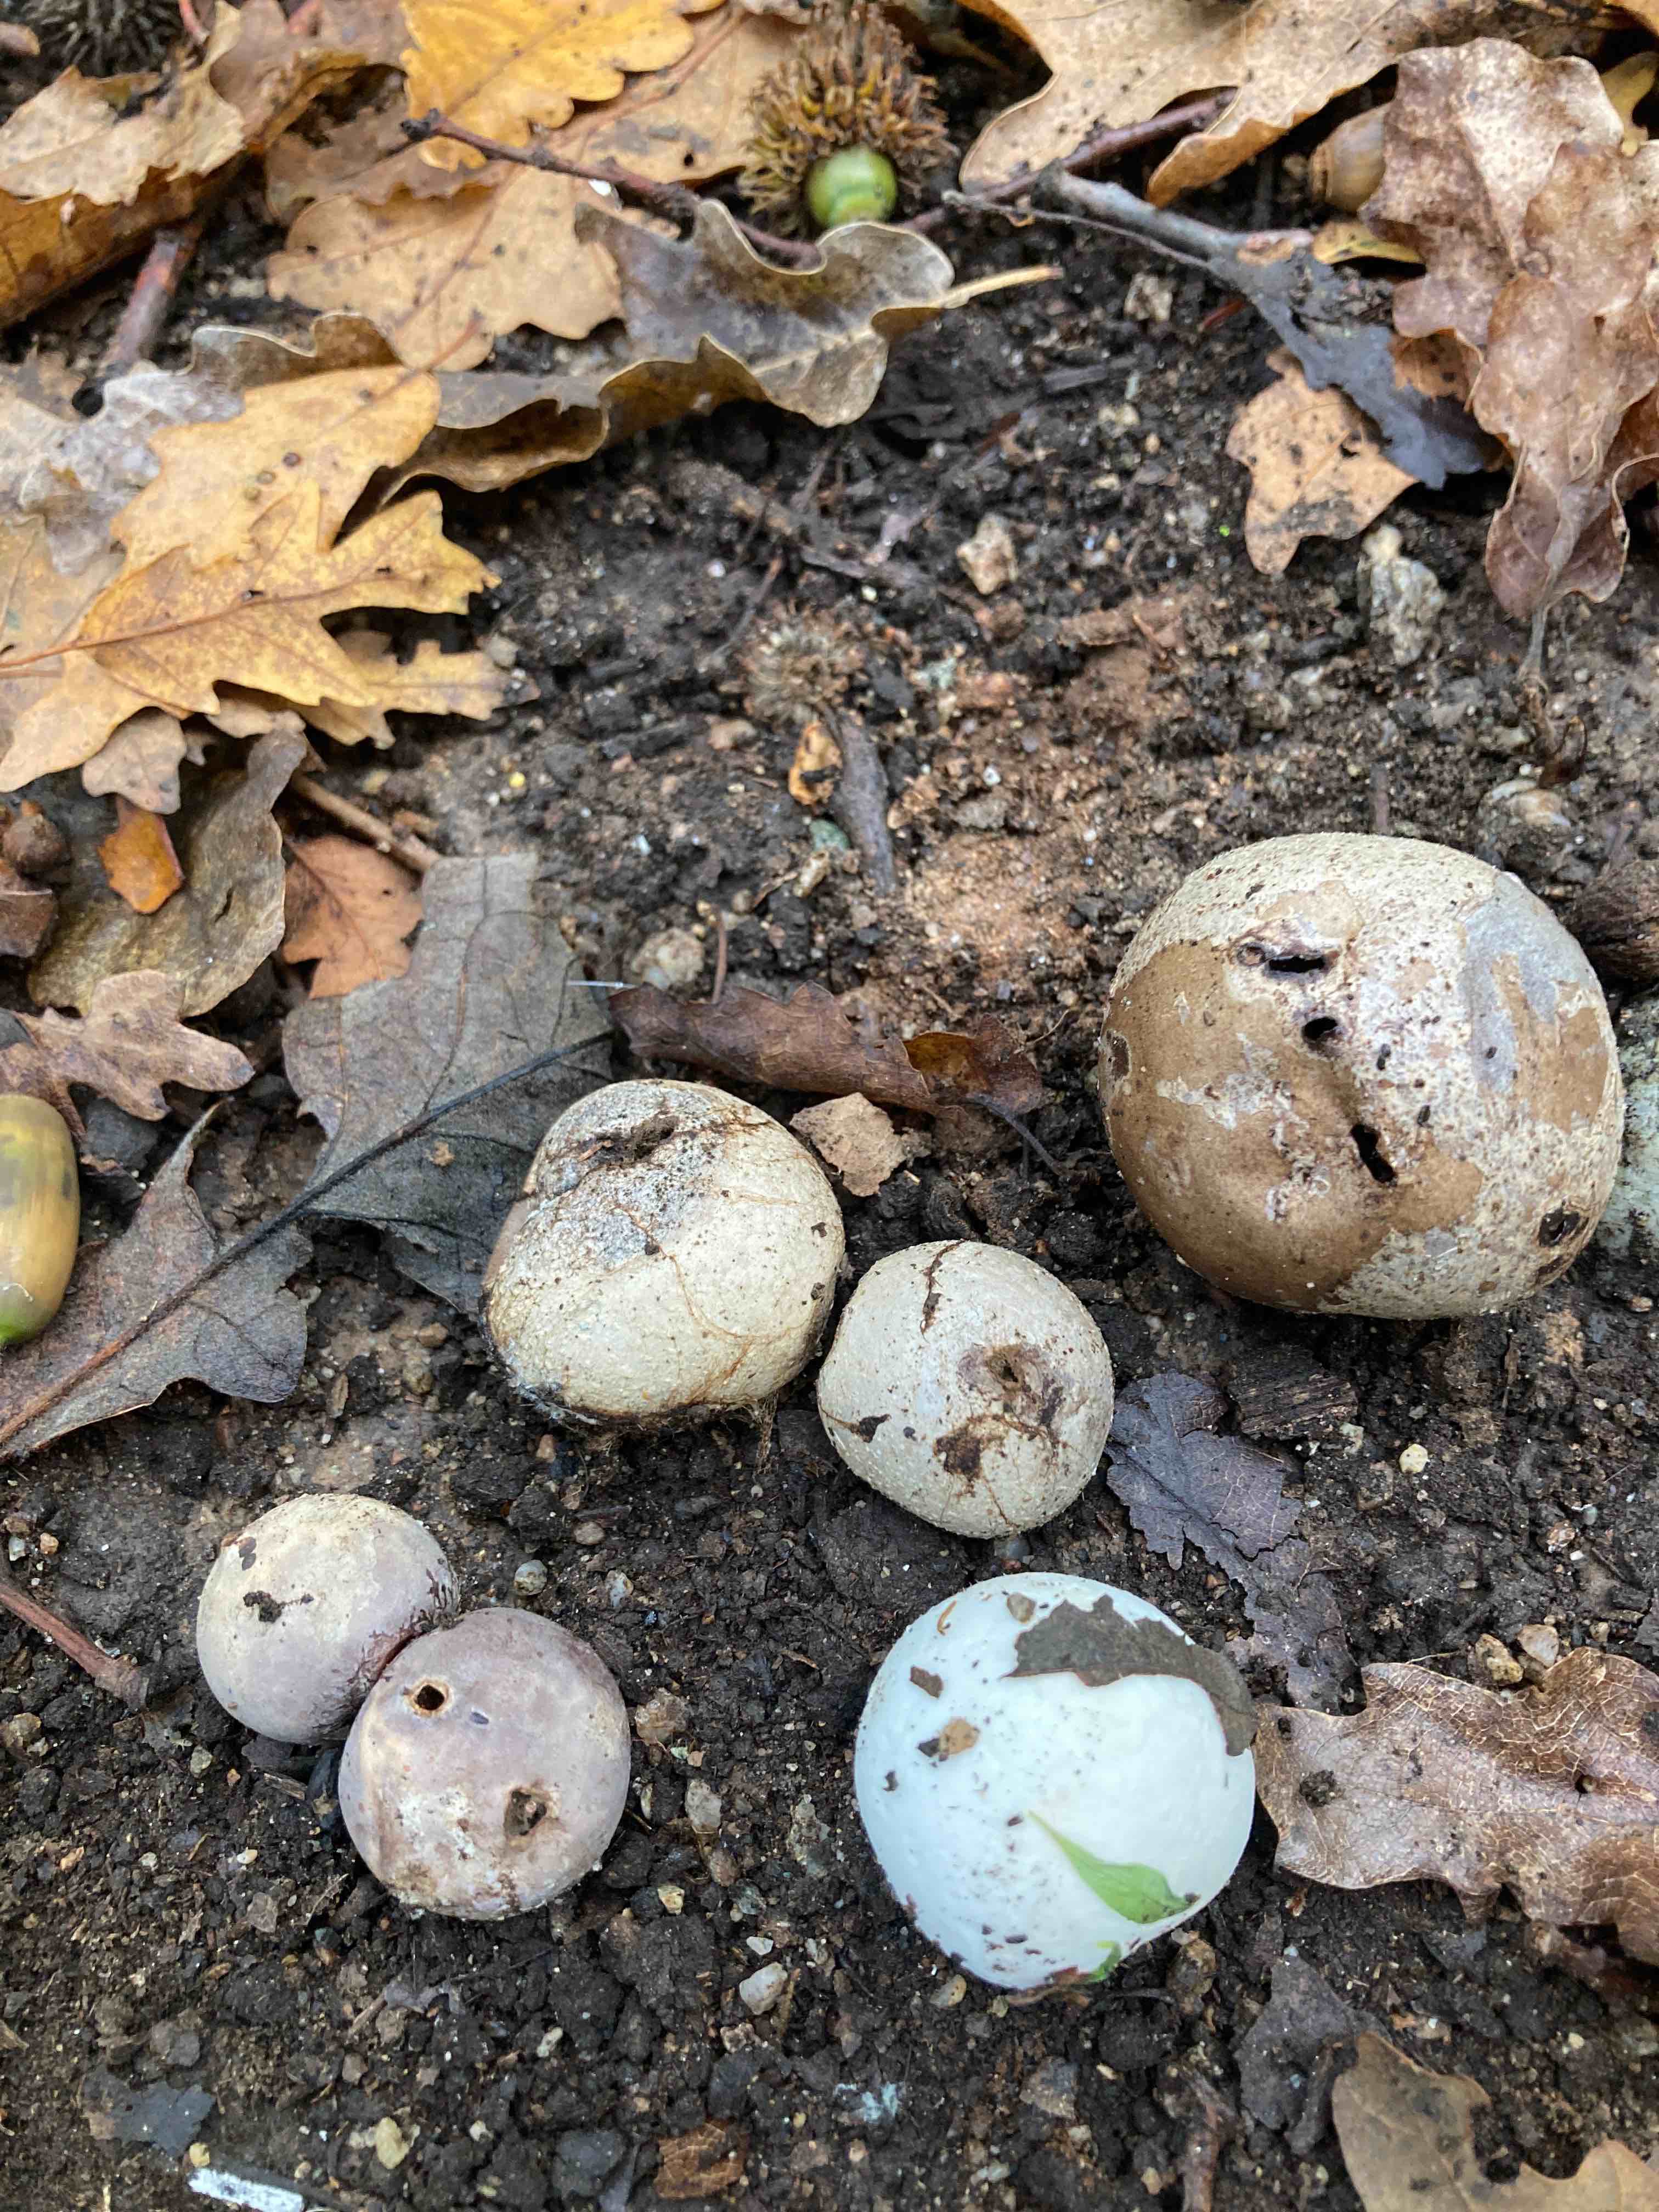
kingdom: Fungi
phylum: Basidiomycota
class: Agaricomycetes
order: Agaricales
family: Lycoperdaceae
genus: Bovista
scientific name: Bovista plumbea
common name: blygrå bovist
